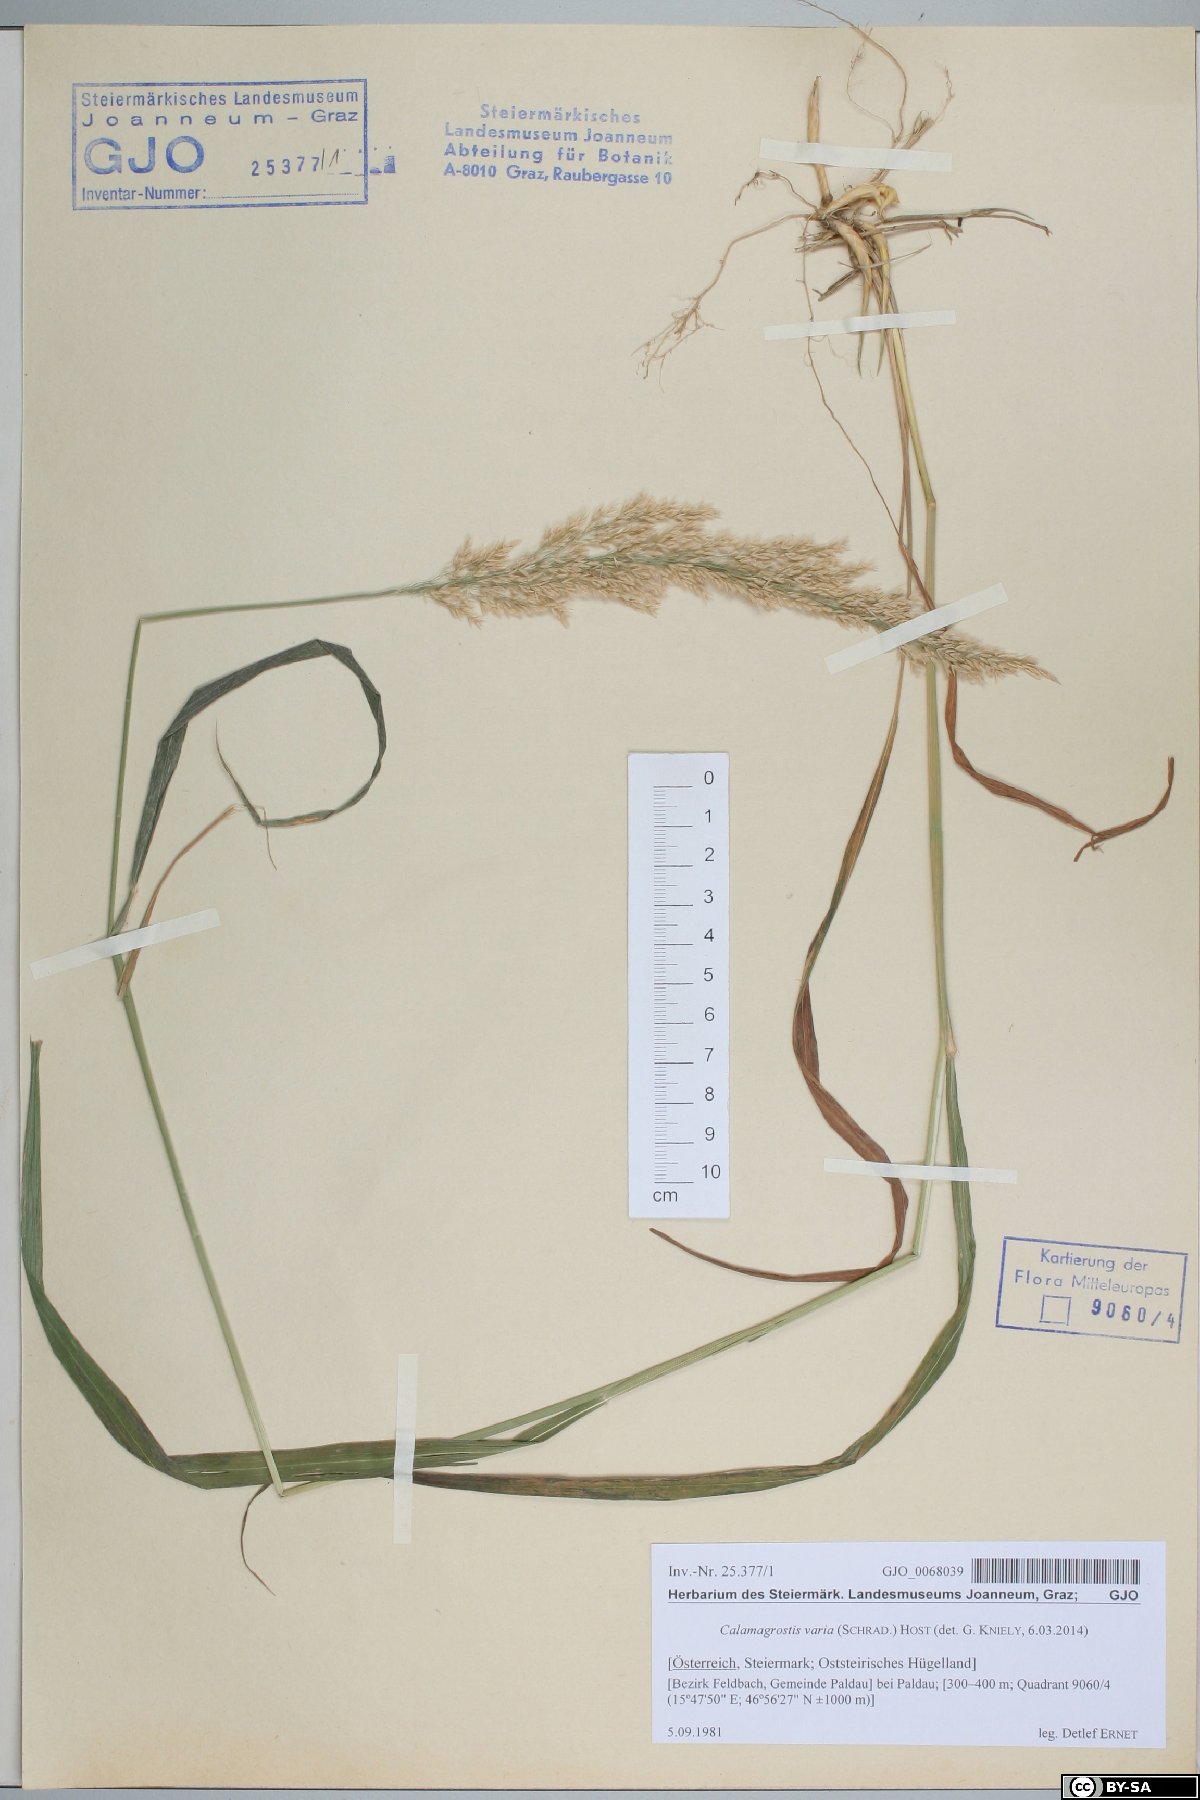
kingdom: Plantae
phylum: Tracheophyta
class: Liliopsida
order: Poales
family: Poaceae
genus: Calamagrostis
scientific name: Calamagrostis varia
